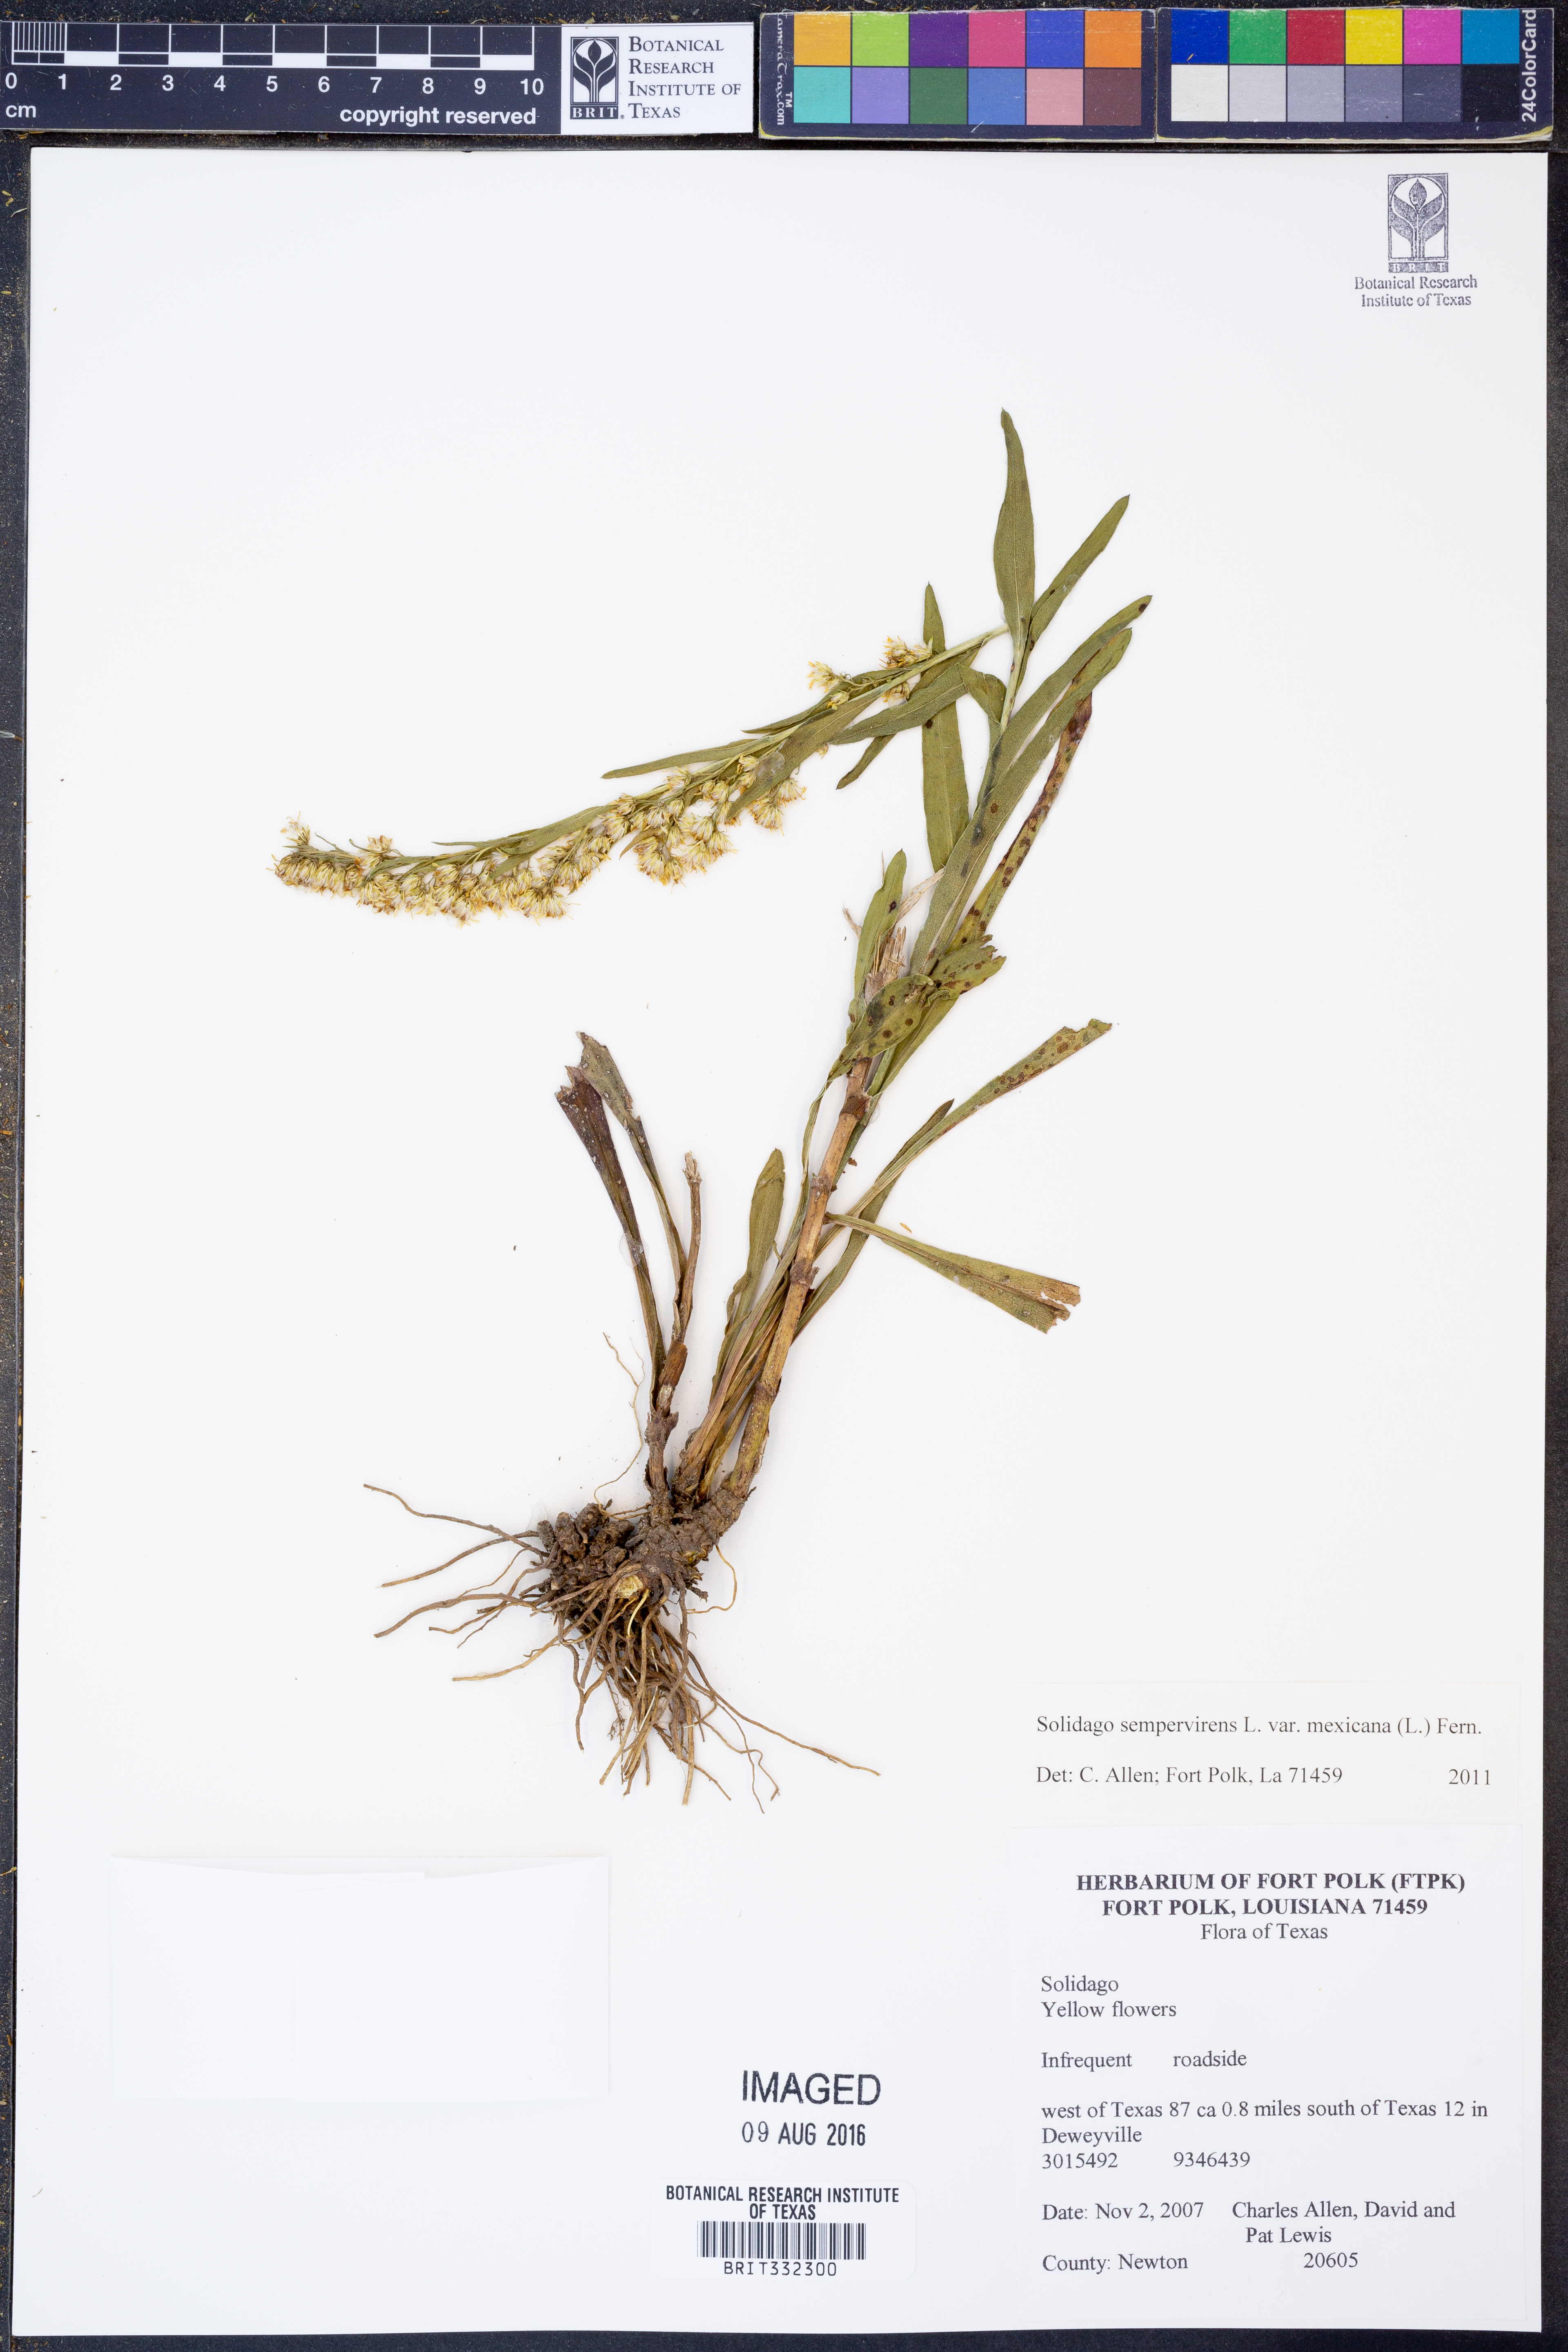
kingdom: Plantae
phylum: Tracheophyta
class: Magnoliopsida
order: Asterales
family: Asteraceae
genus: Solidago
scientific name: Solidago mexicana
